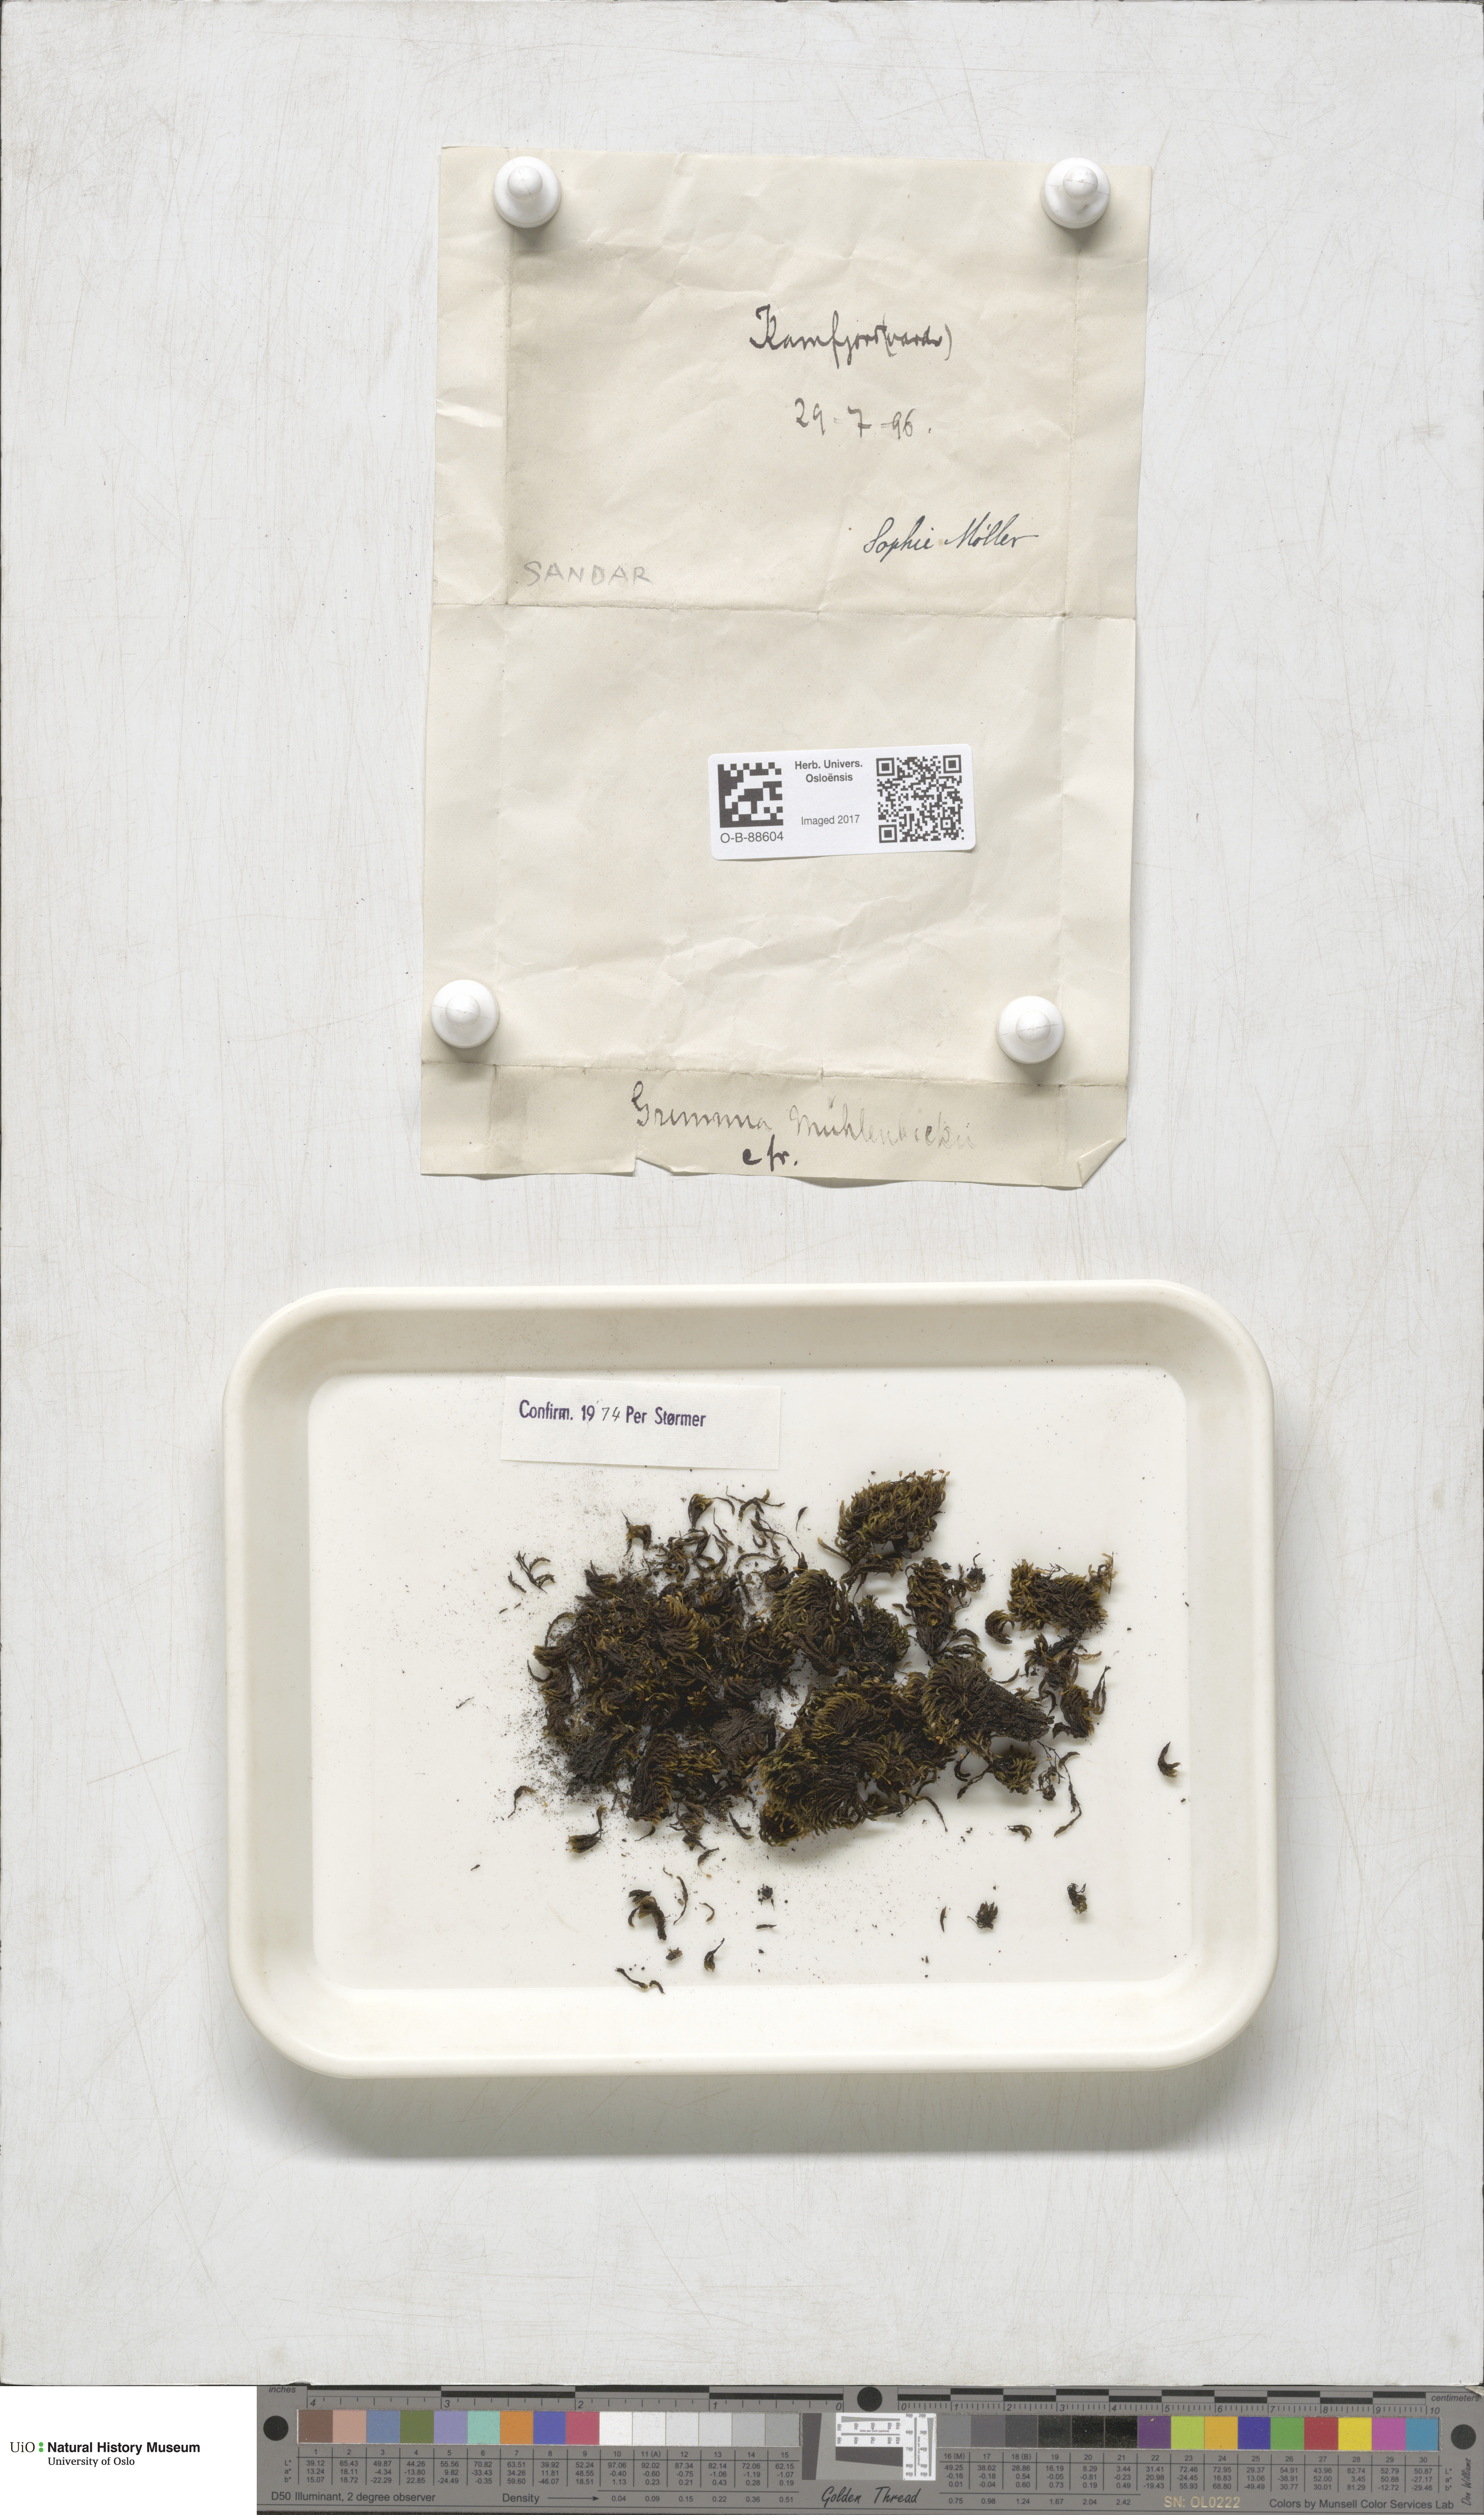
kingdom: Plantae
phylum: Bryophyta
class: Bryopsida
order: Grimmiales
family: Grimmiaceae
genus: Grimmia
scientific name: Grimmia trichophylla
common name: Hair-pointed grimmia
